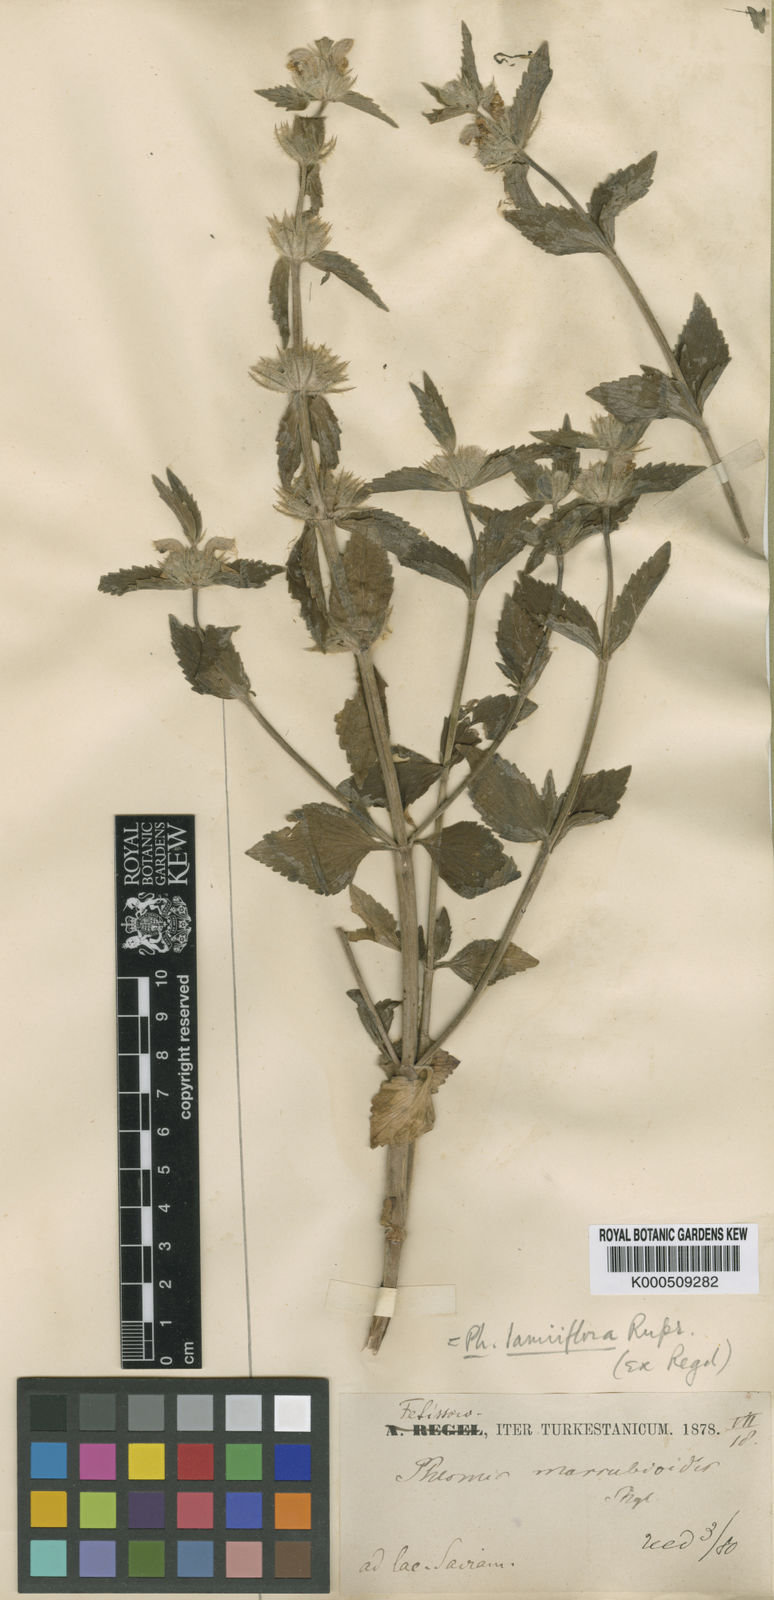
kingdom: Plantae
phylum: Tracheophyta
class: Magnoliopsida
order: Lamiales
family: Lamiaceae
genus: Eriophyton
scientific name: Eriophyton lamiiflorum
